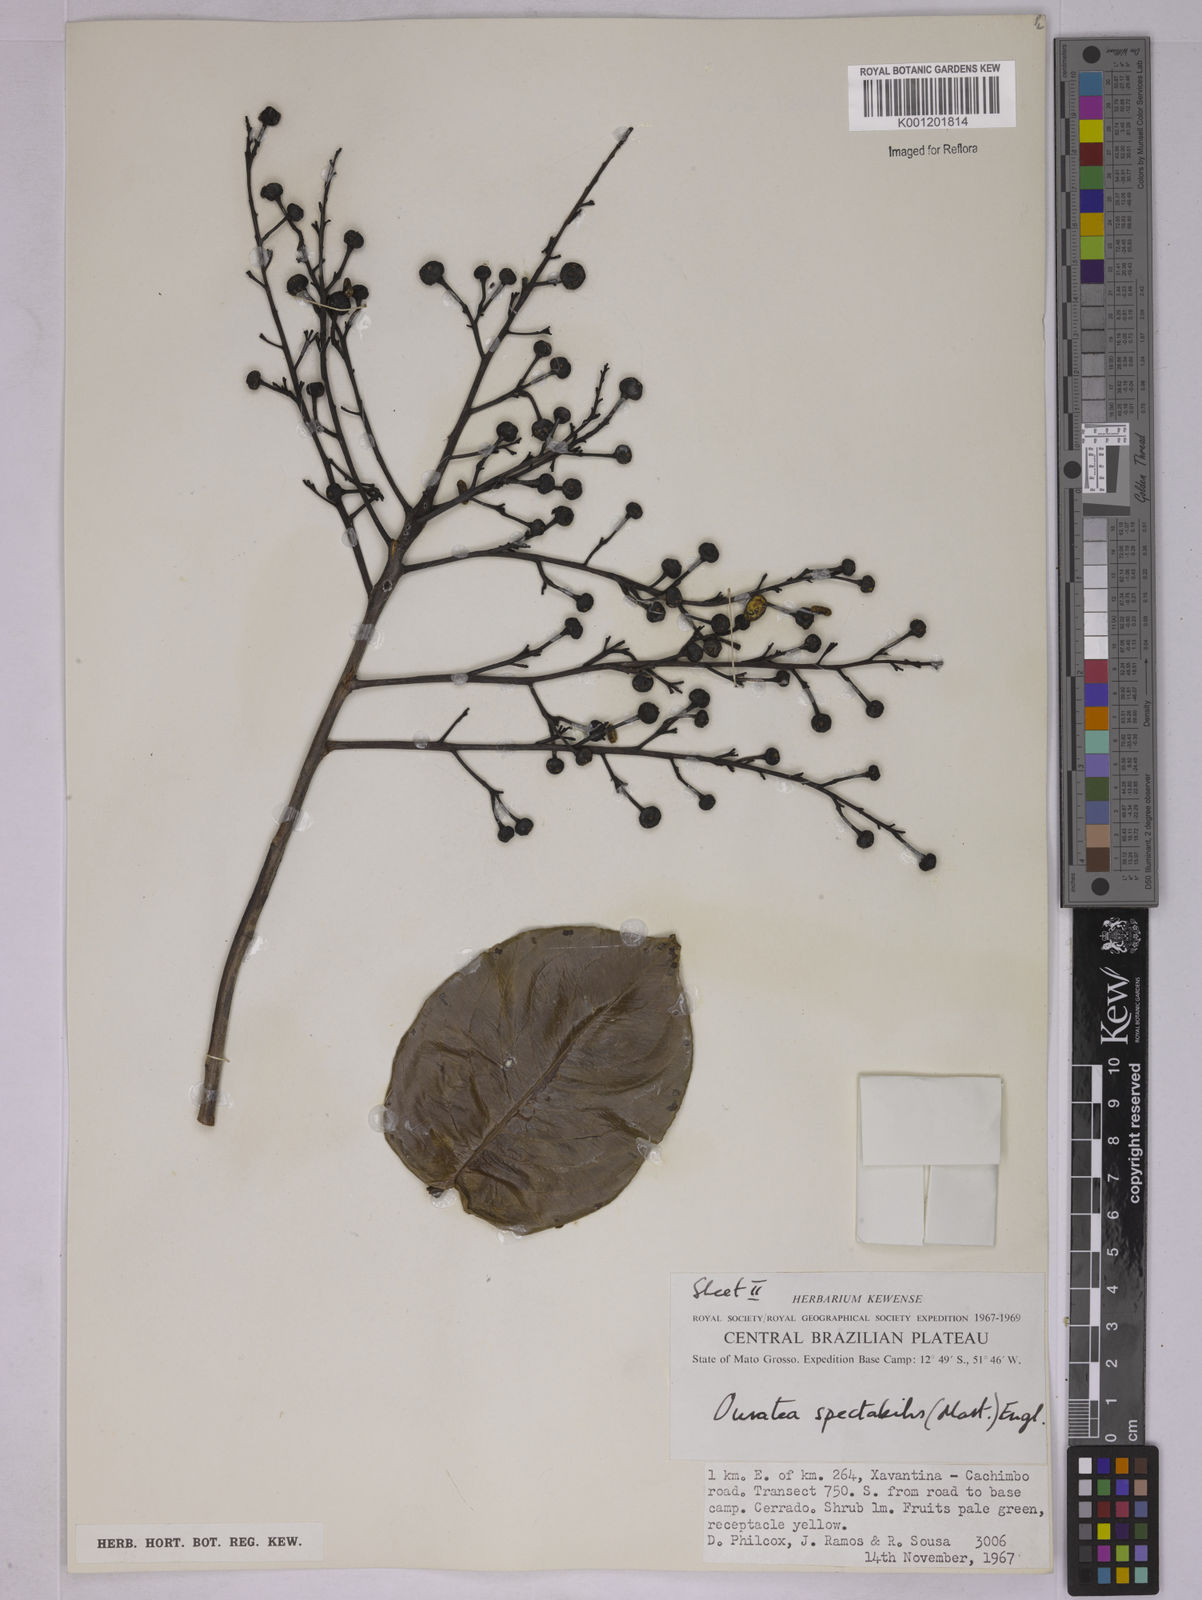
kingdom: Plantae
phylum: Tracheophyta
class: Magnoliopsida
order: Malpighiales
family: Ochnaceae
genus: Ouratea
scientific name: Ouratea nana
